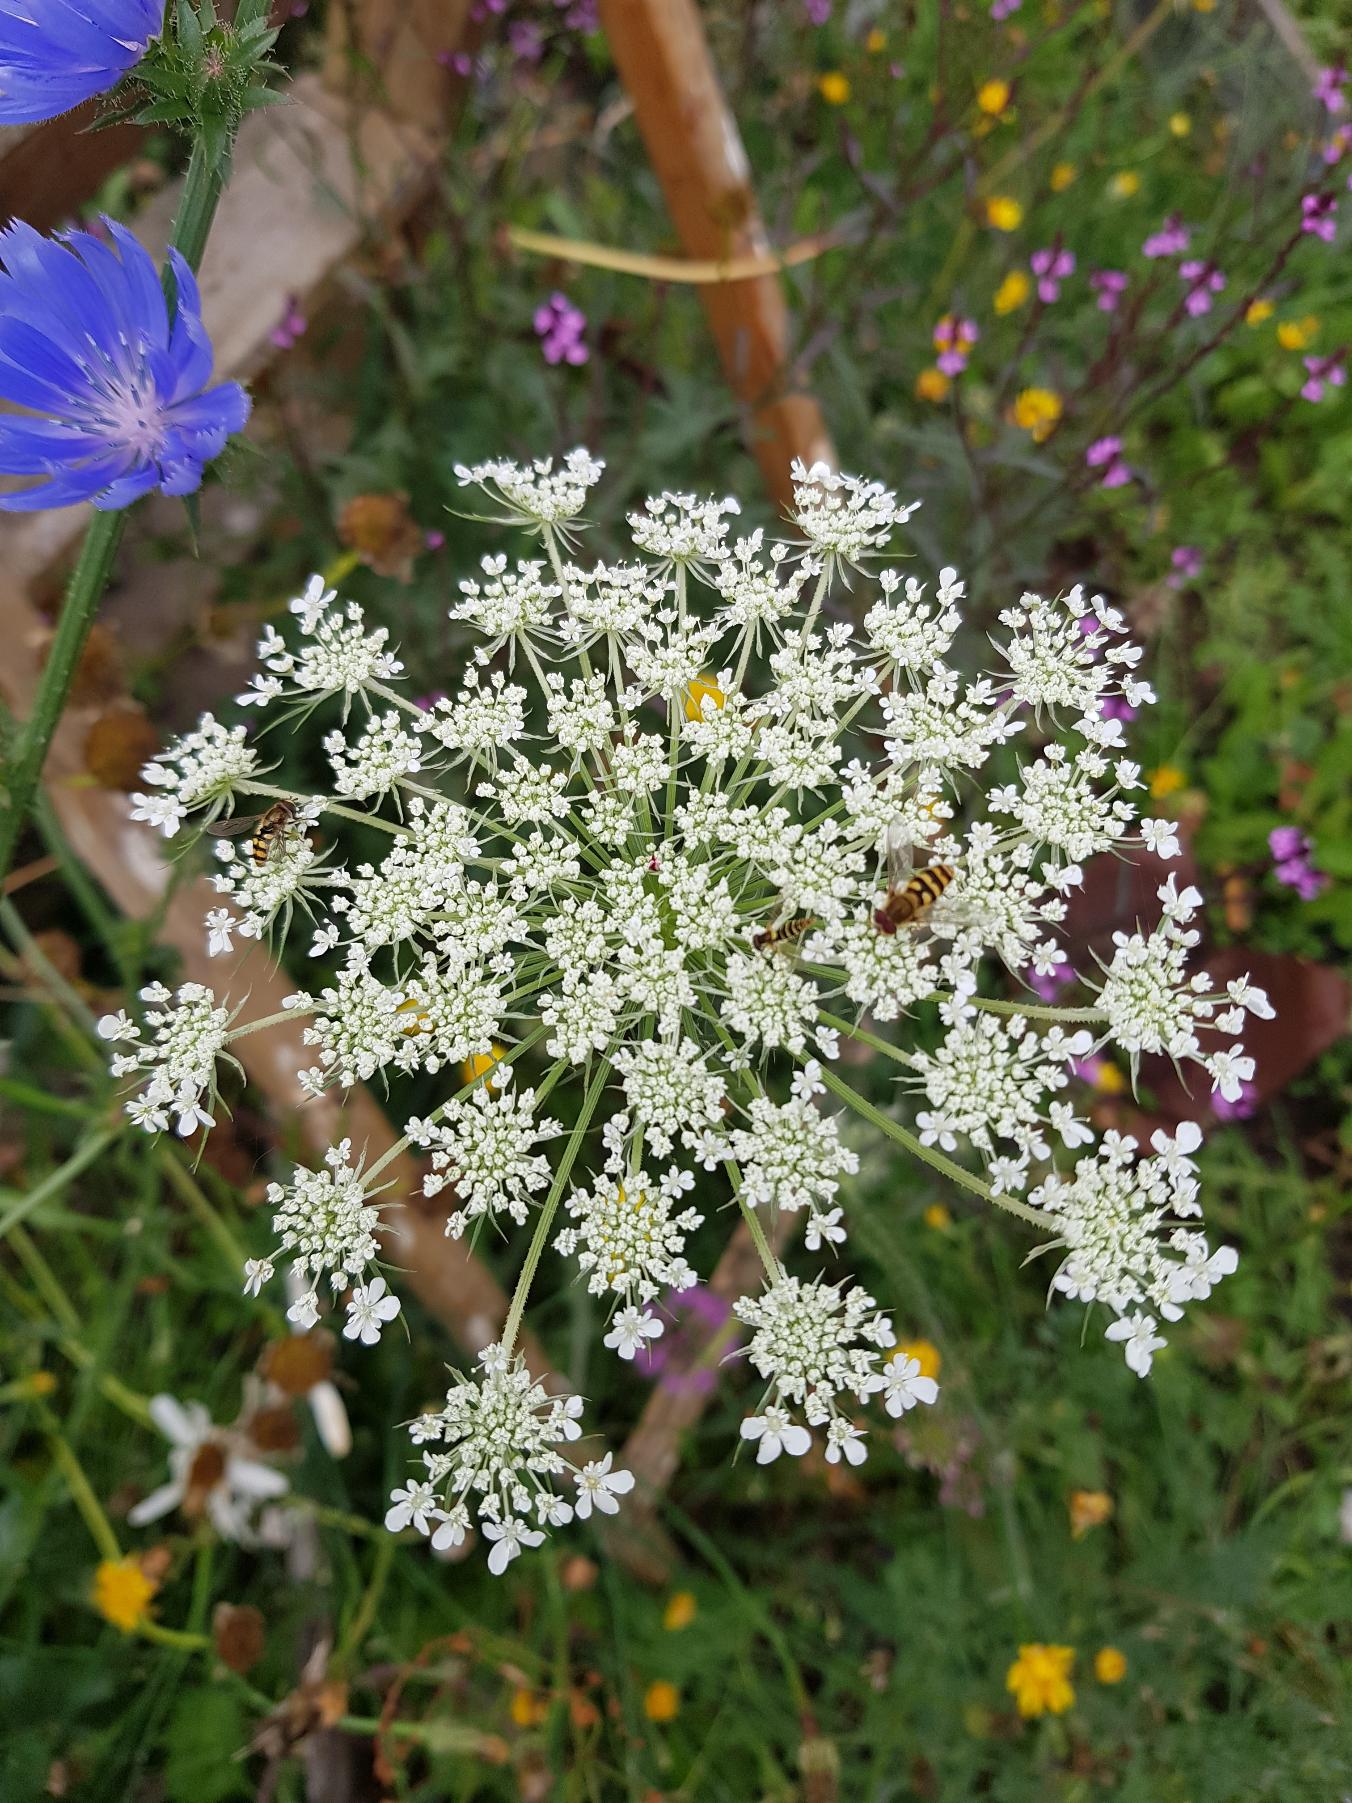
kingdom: Plantae
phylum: Tracheophyta
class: Magnoliopsida
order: Apiales
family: Apiaceae
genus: Daucus
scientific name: Daucus carota
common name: Gulerod
